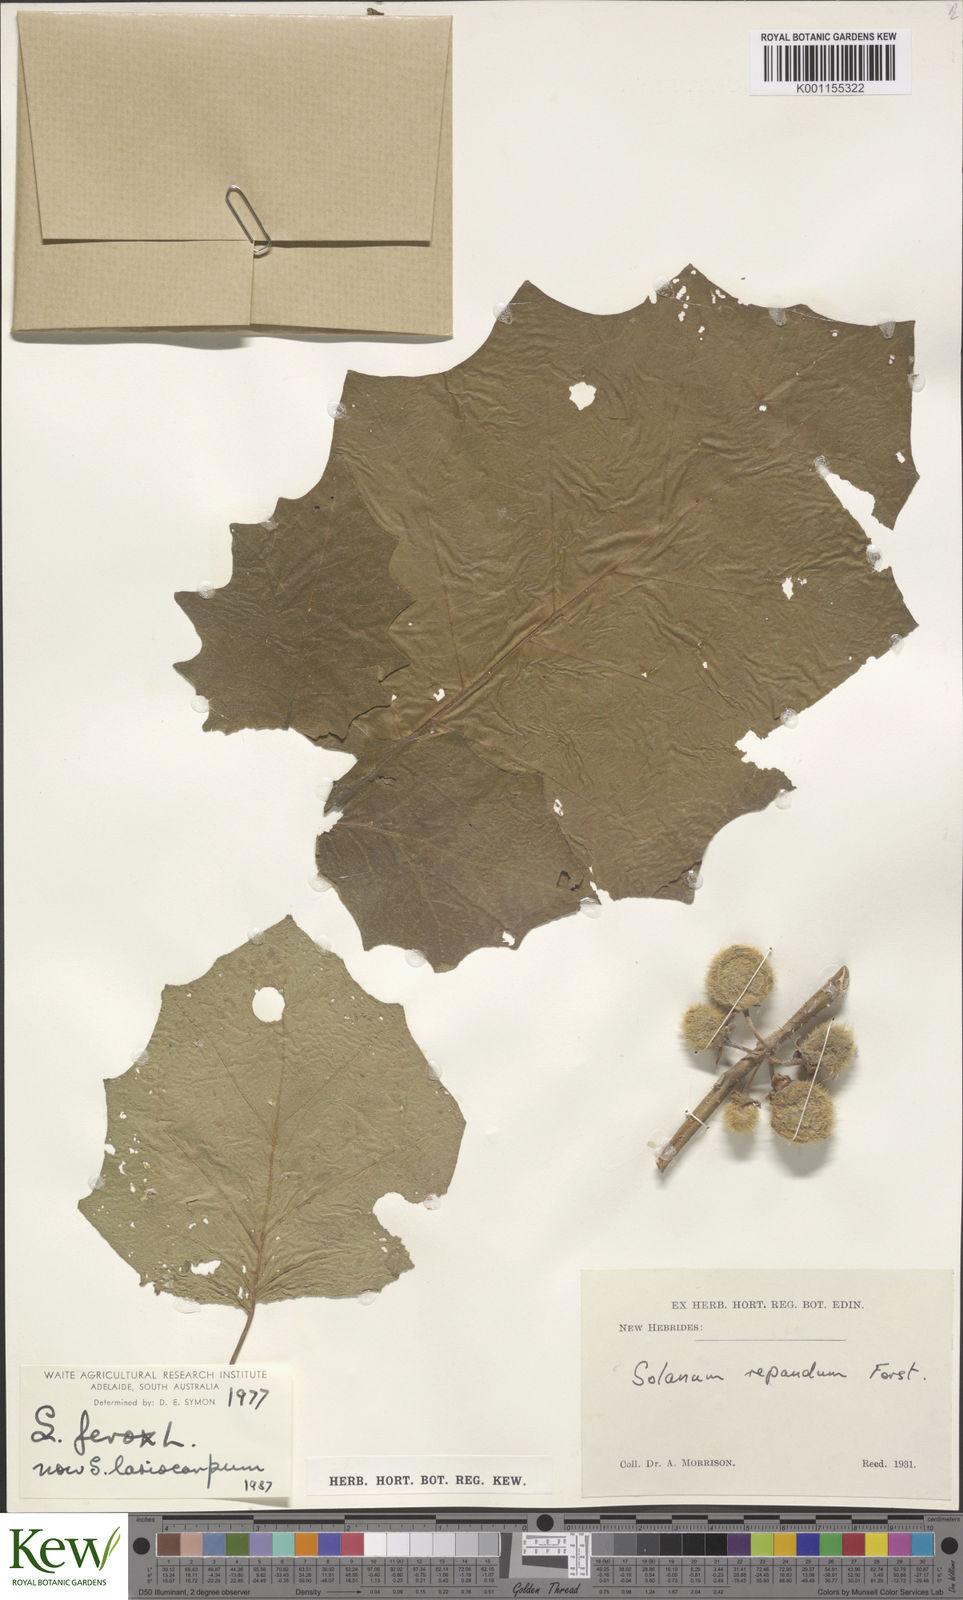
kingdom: Plantae
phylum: Tracheophyta
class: Magnoliopsida
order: Solanales
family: Solanaceae
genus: Solanum
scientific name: Solanum
